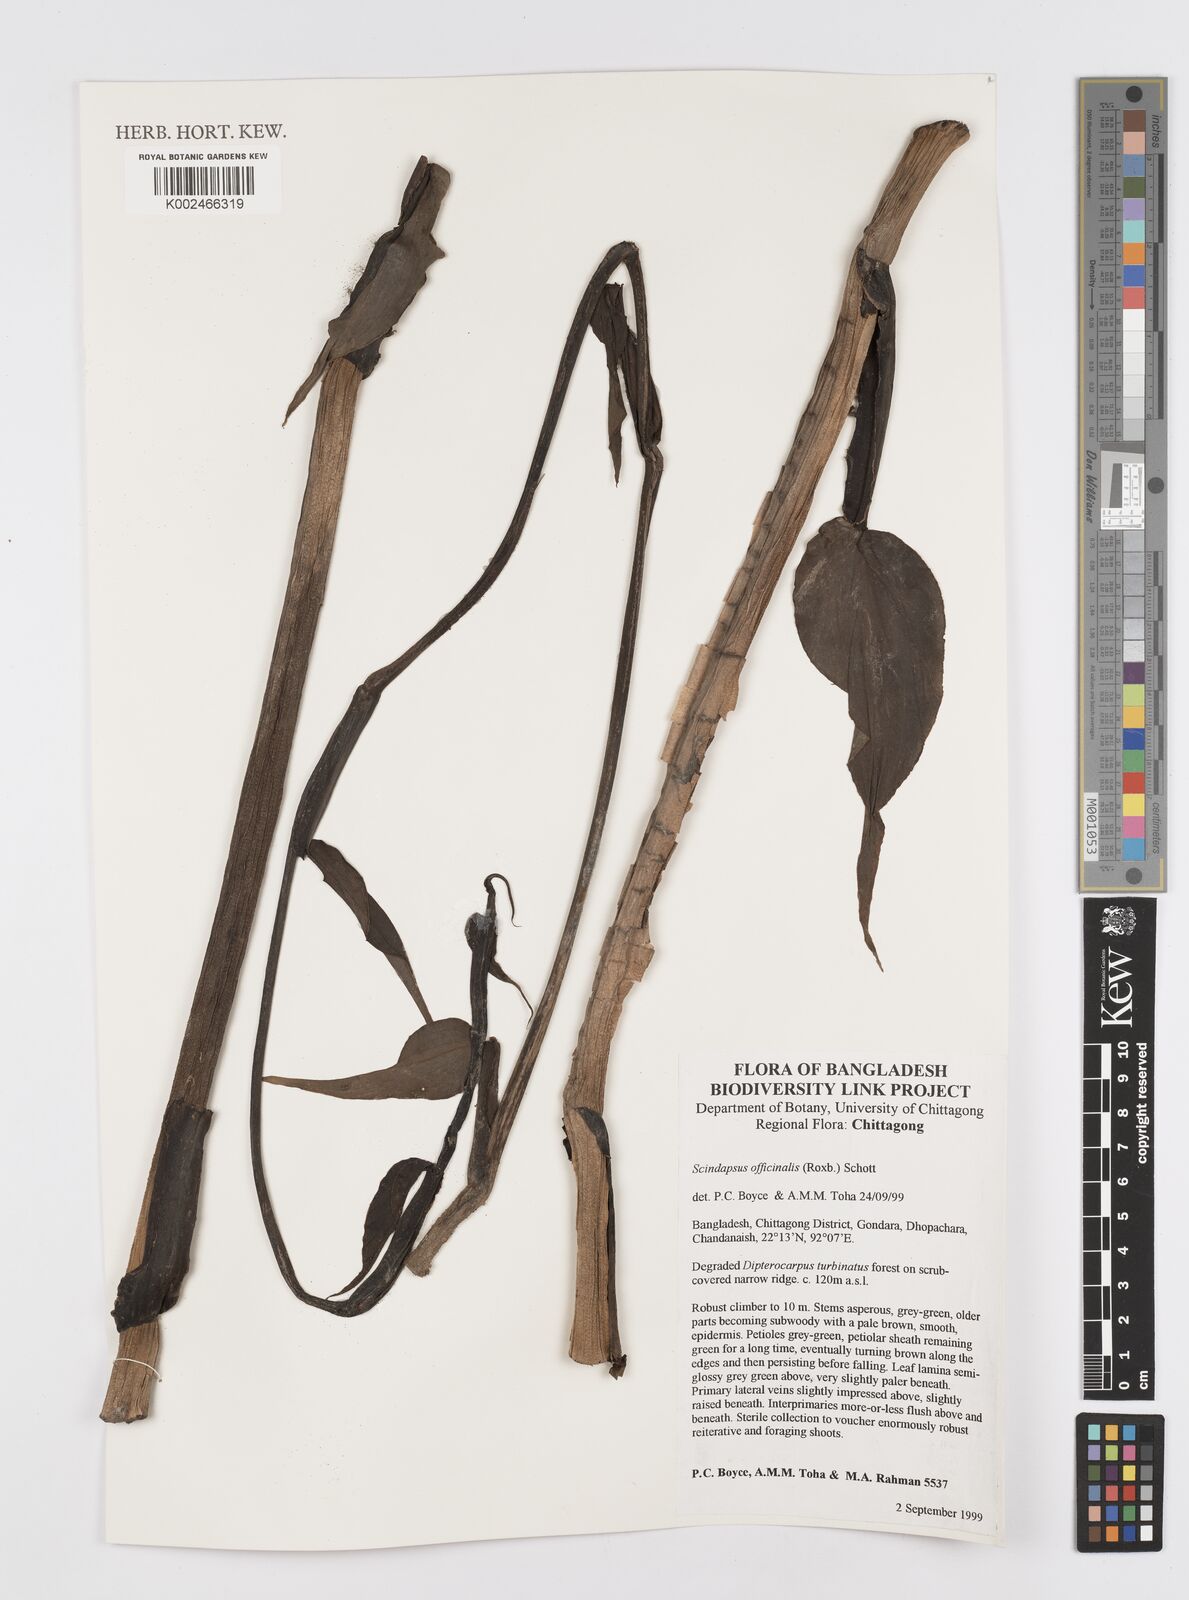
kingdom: Plantae
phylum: Tracheophyta
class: Liliopsida
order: Alismatales
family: Araceae
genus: Scindapsus
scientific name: Scindapsus officinalis
